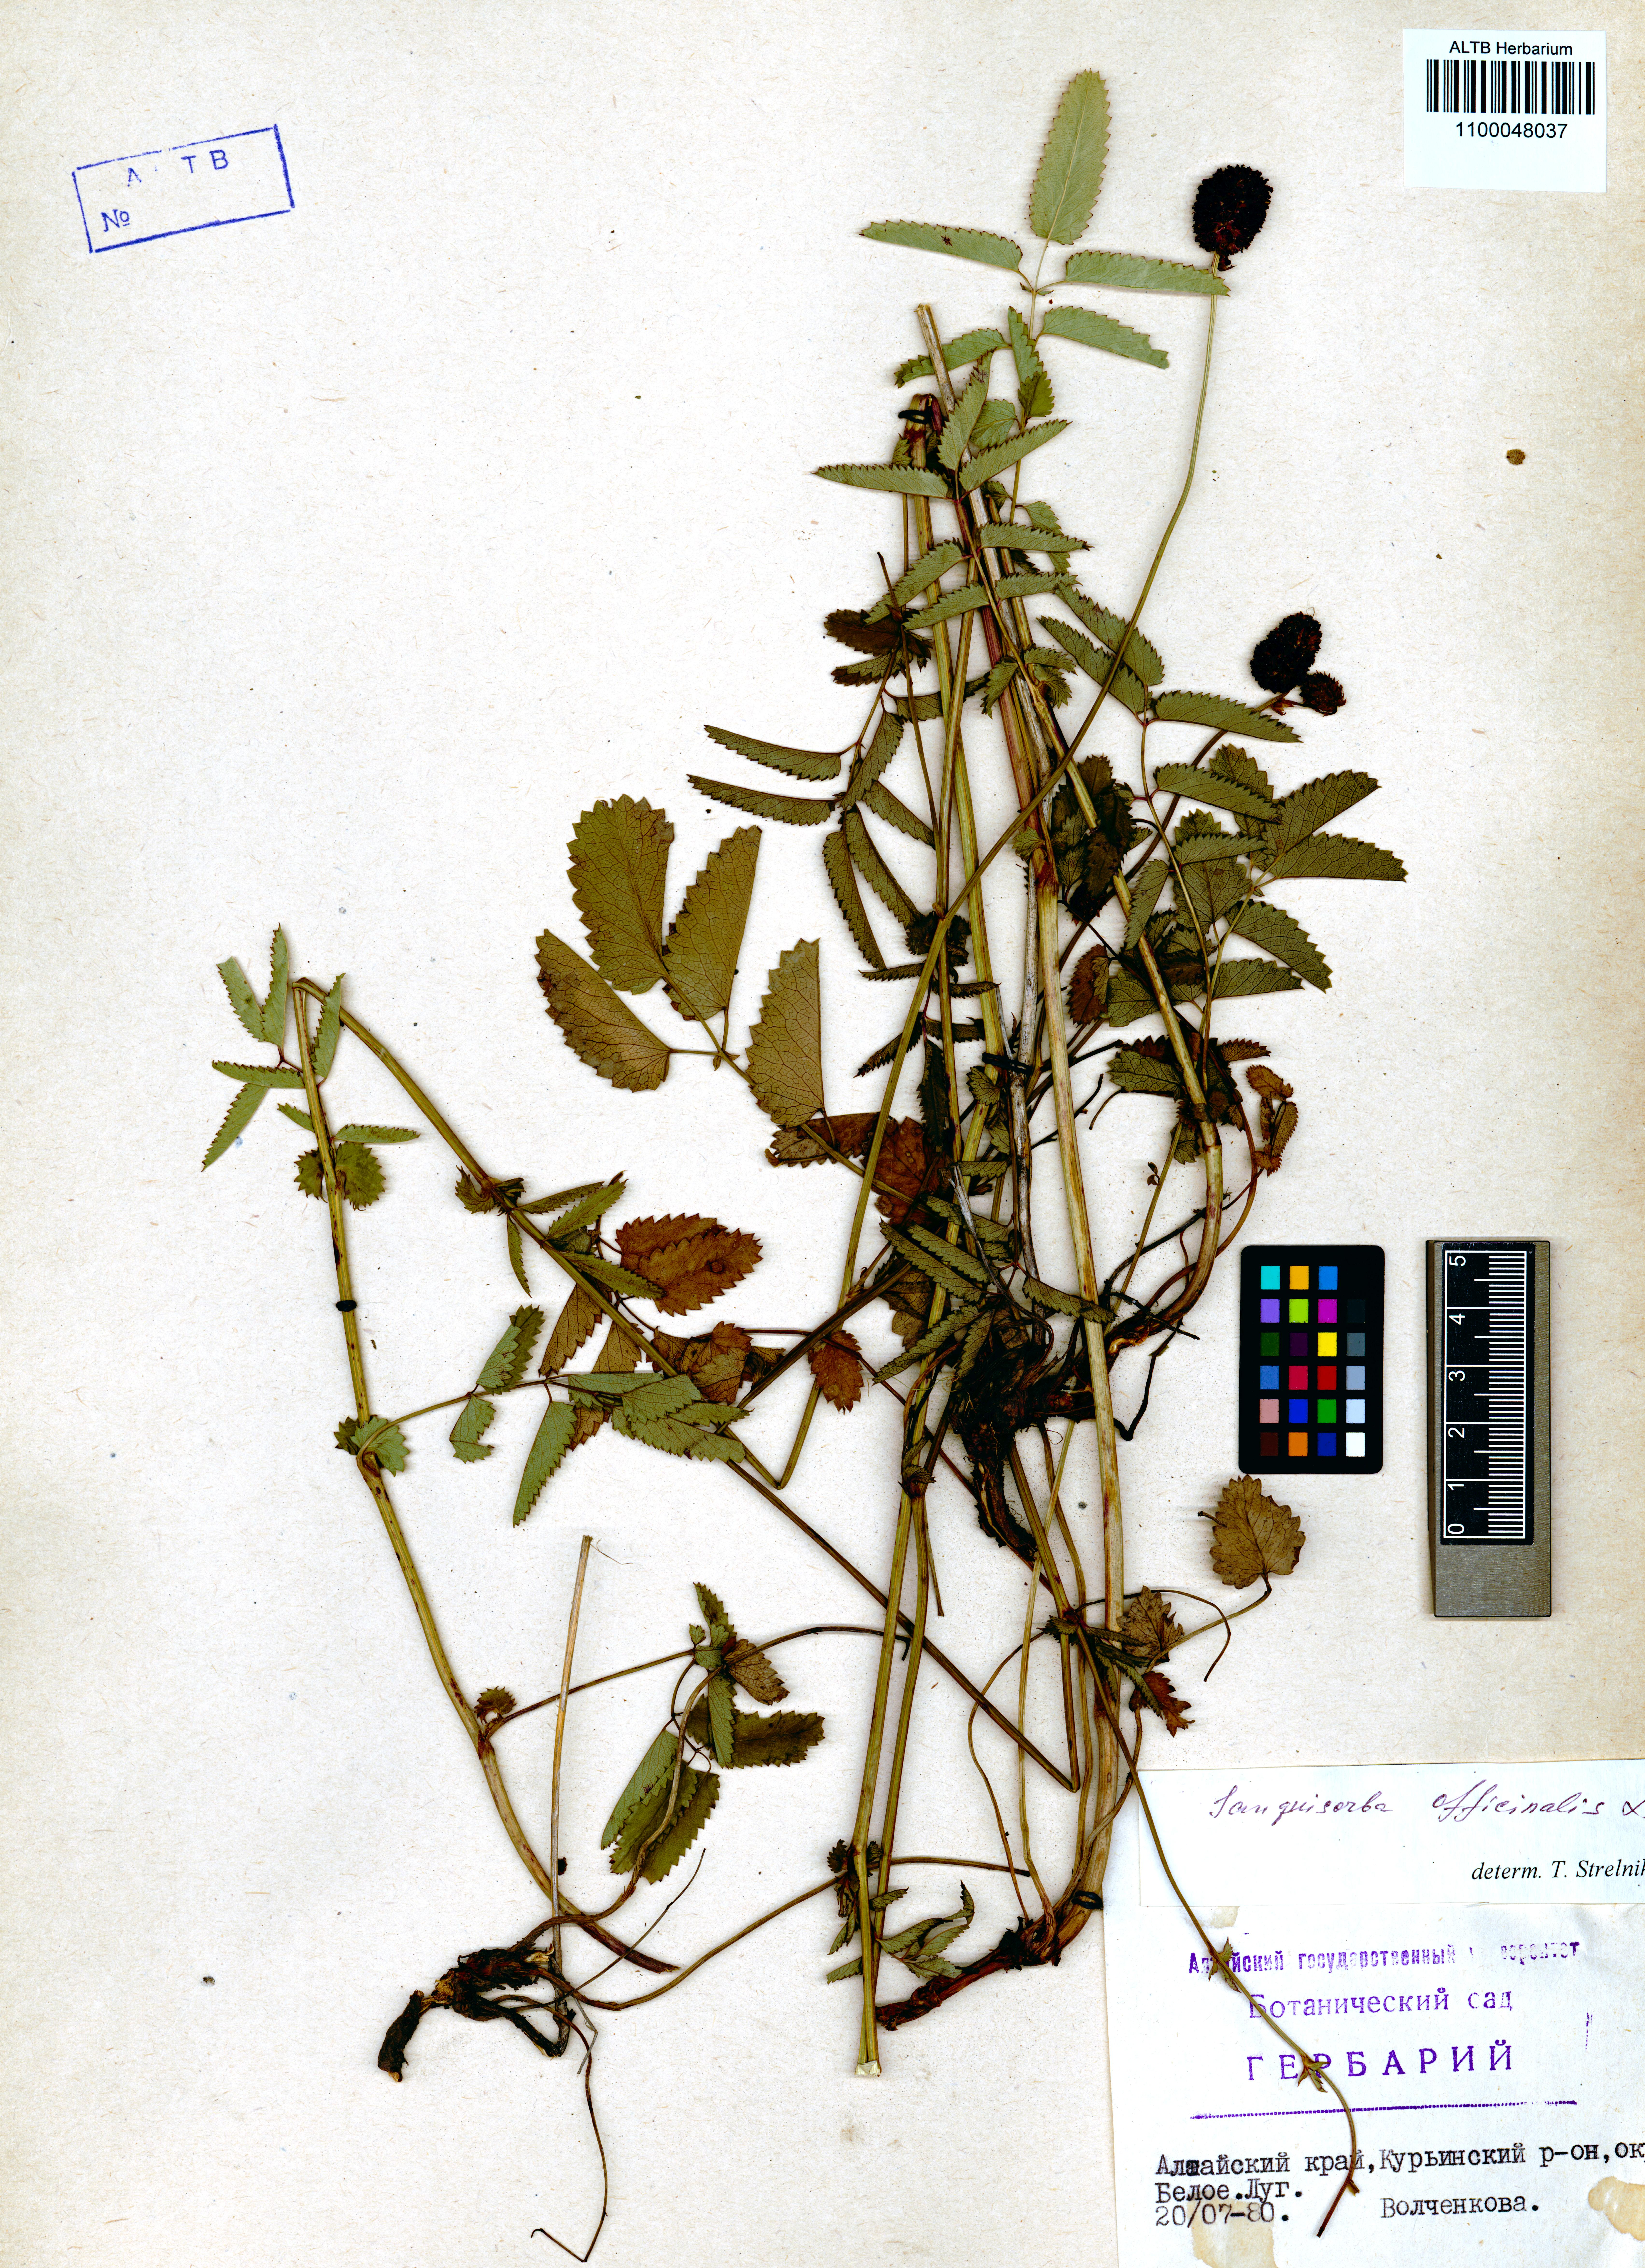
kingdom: Plantae
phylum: Tracheophyta
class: Magnoliopsida
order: Rosales
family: Rosaceae
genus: Sanguisorba
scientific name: Sanguisorba officinalis
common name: Great burnet
